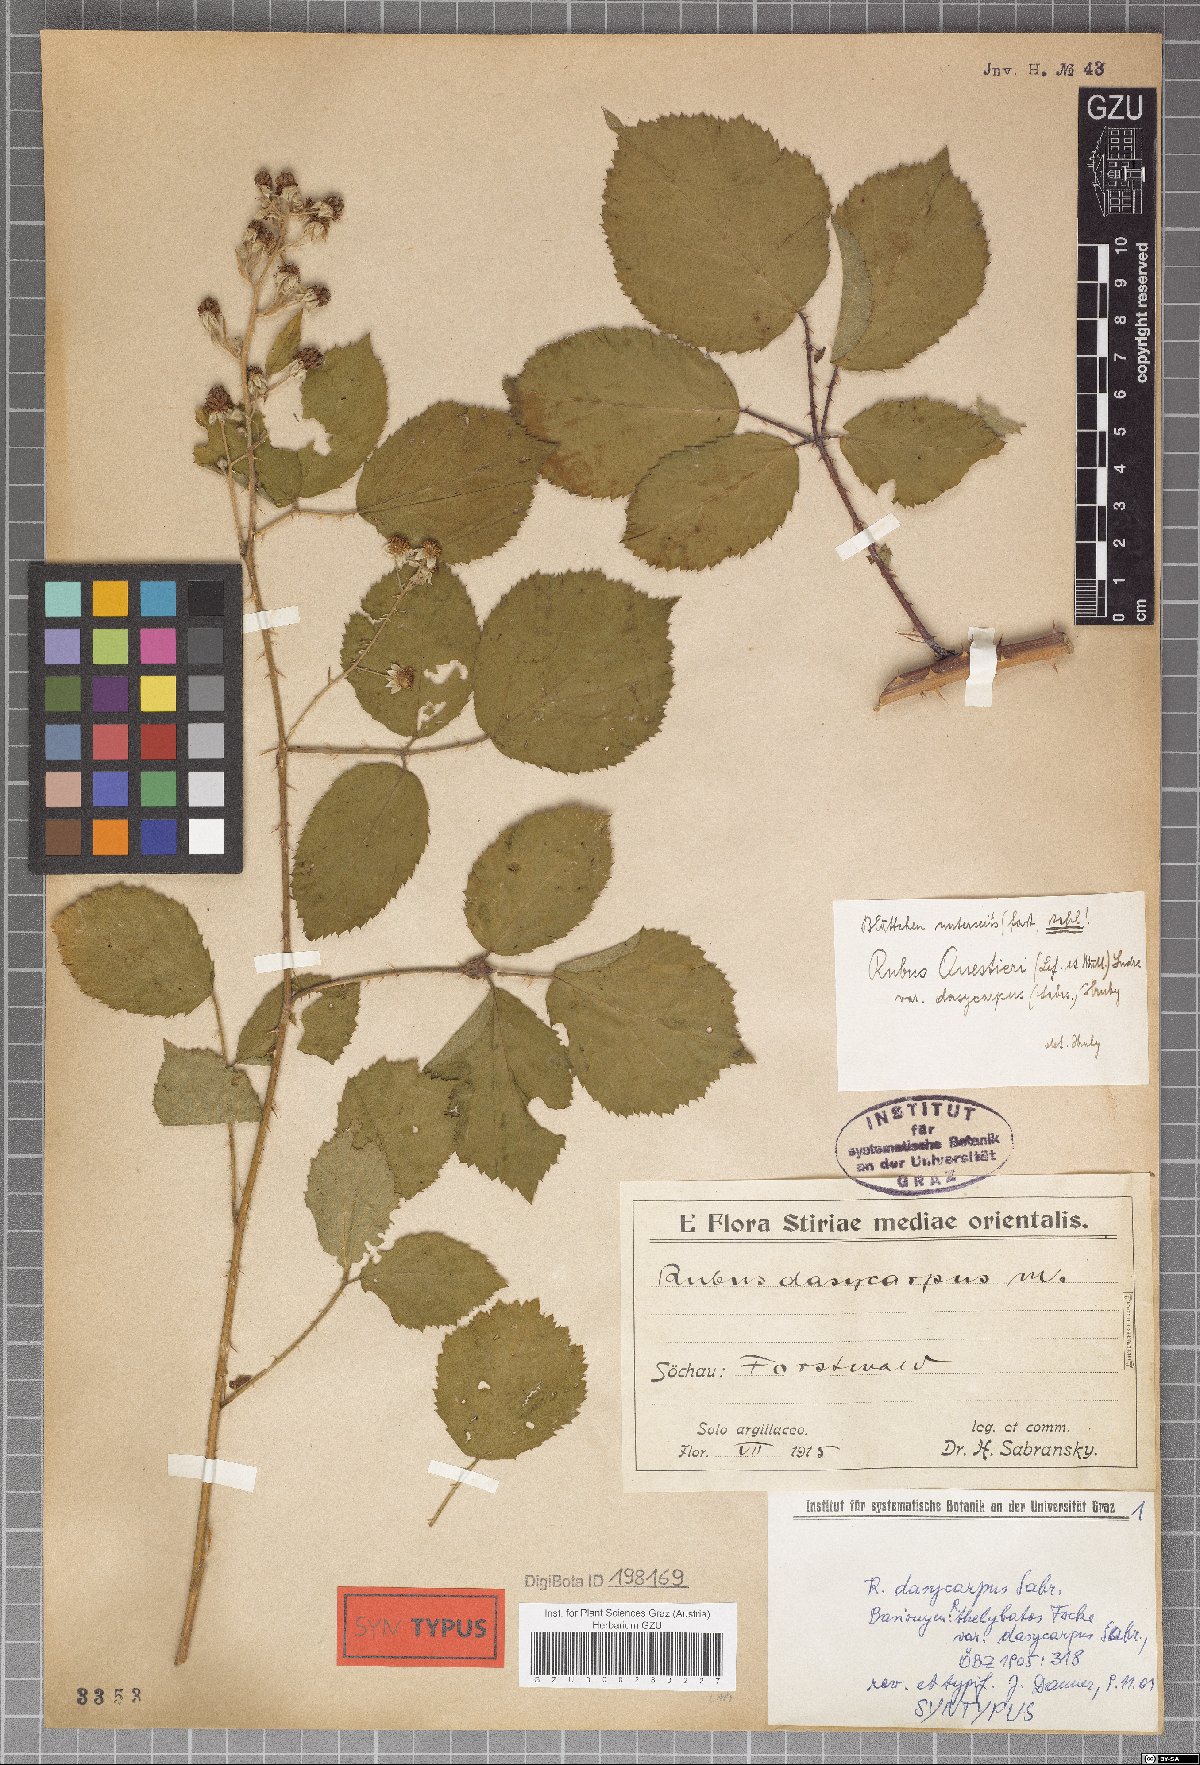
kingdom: Plantae
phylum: Tracheophyta
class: Magnoliopsida
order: Rosales
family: Rosaceae
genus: Rubus
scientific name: Rubus thelybatos
